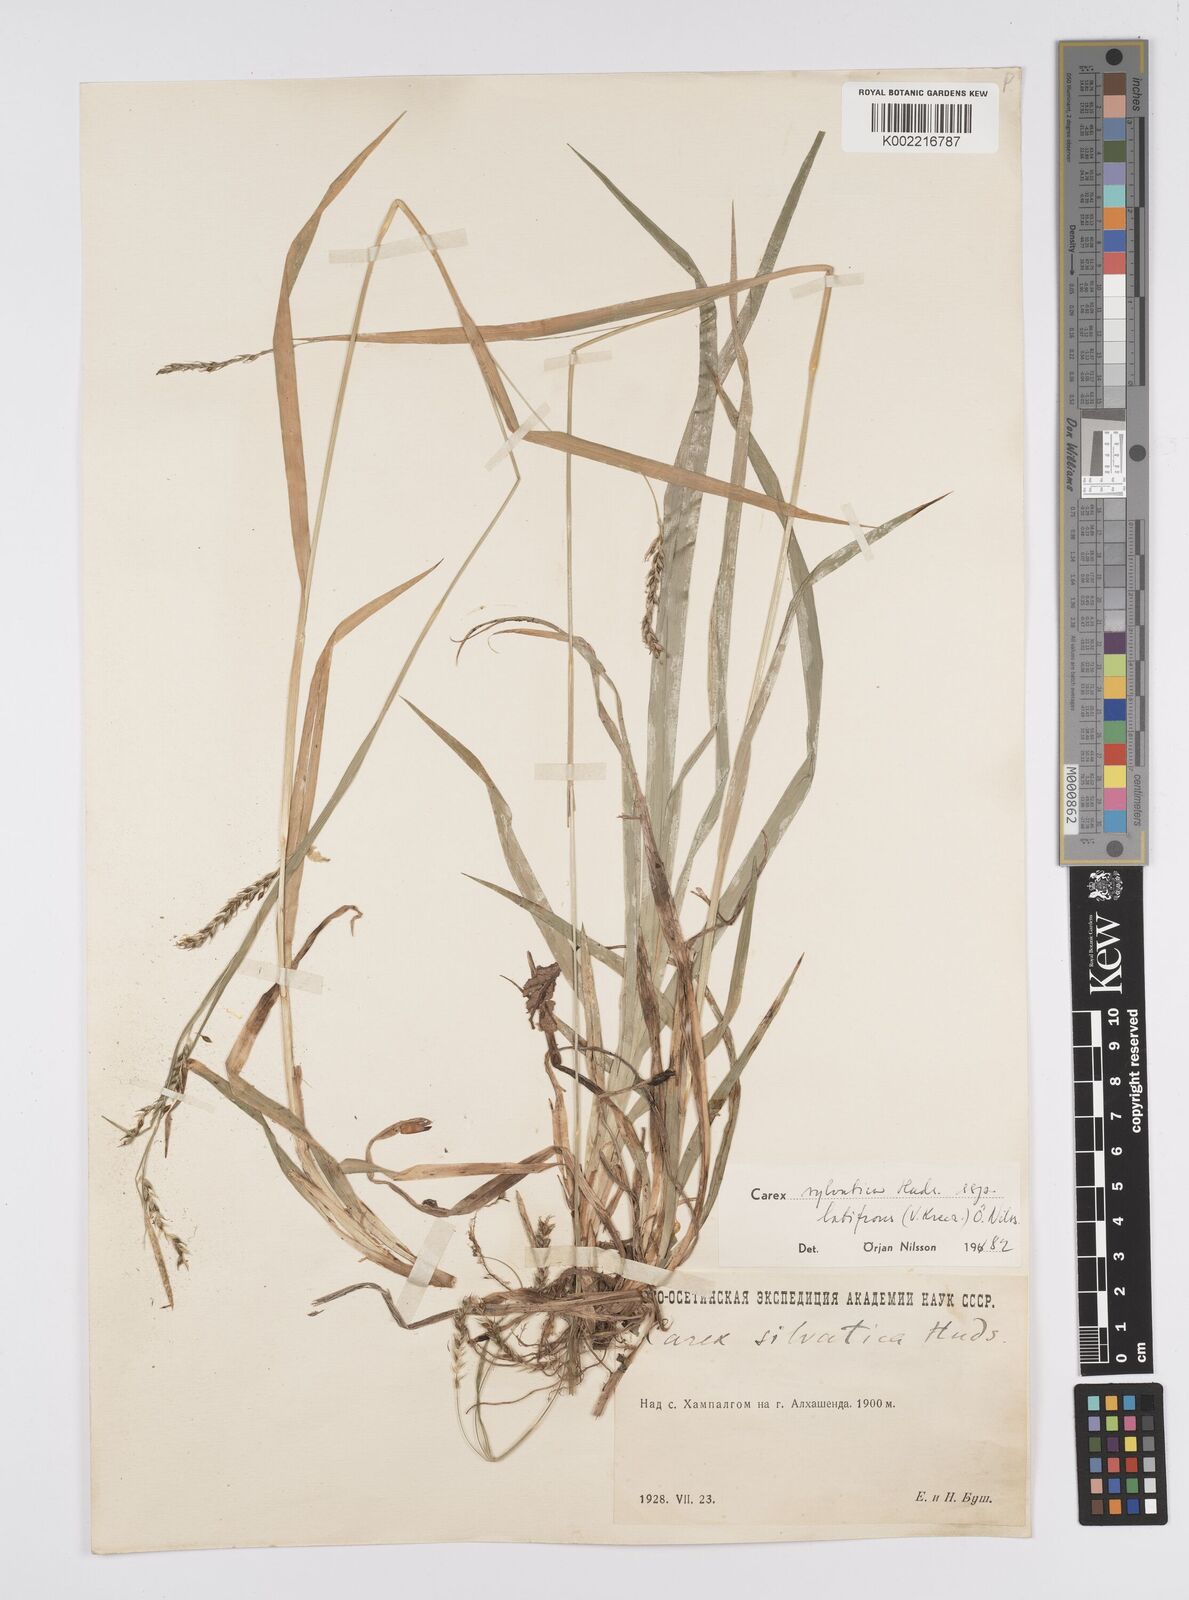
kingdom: Plantae
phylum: Tracheophyta
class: Liliopsida
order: Poales
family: Cyperaceae
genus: Carex
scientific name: Carex sylvatica
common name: Wood-sedge
